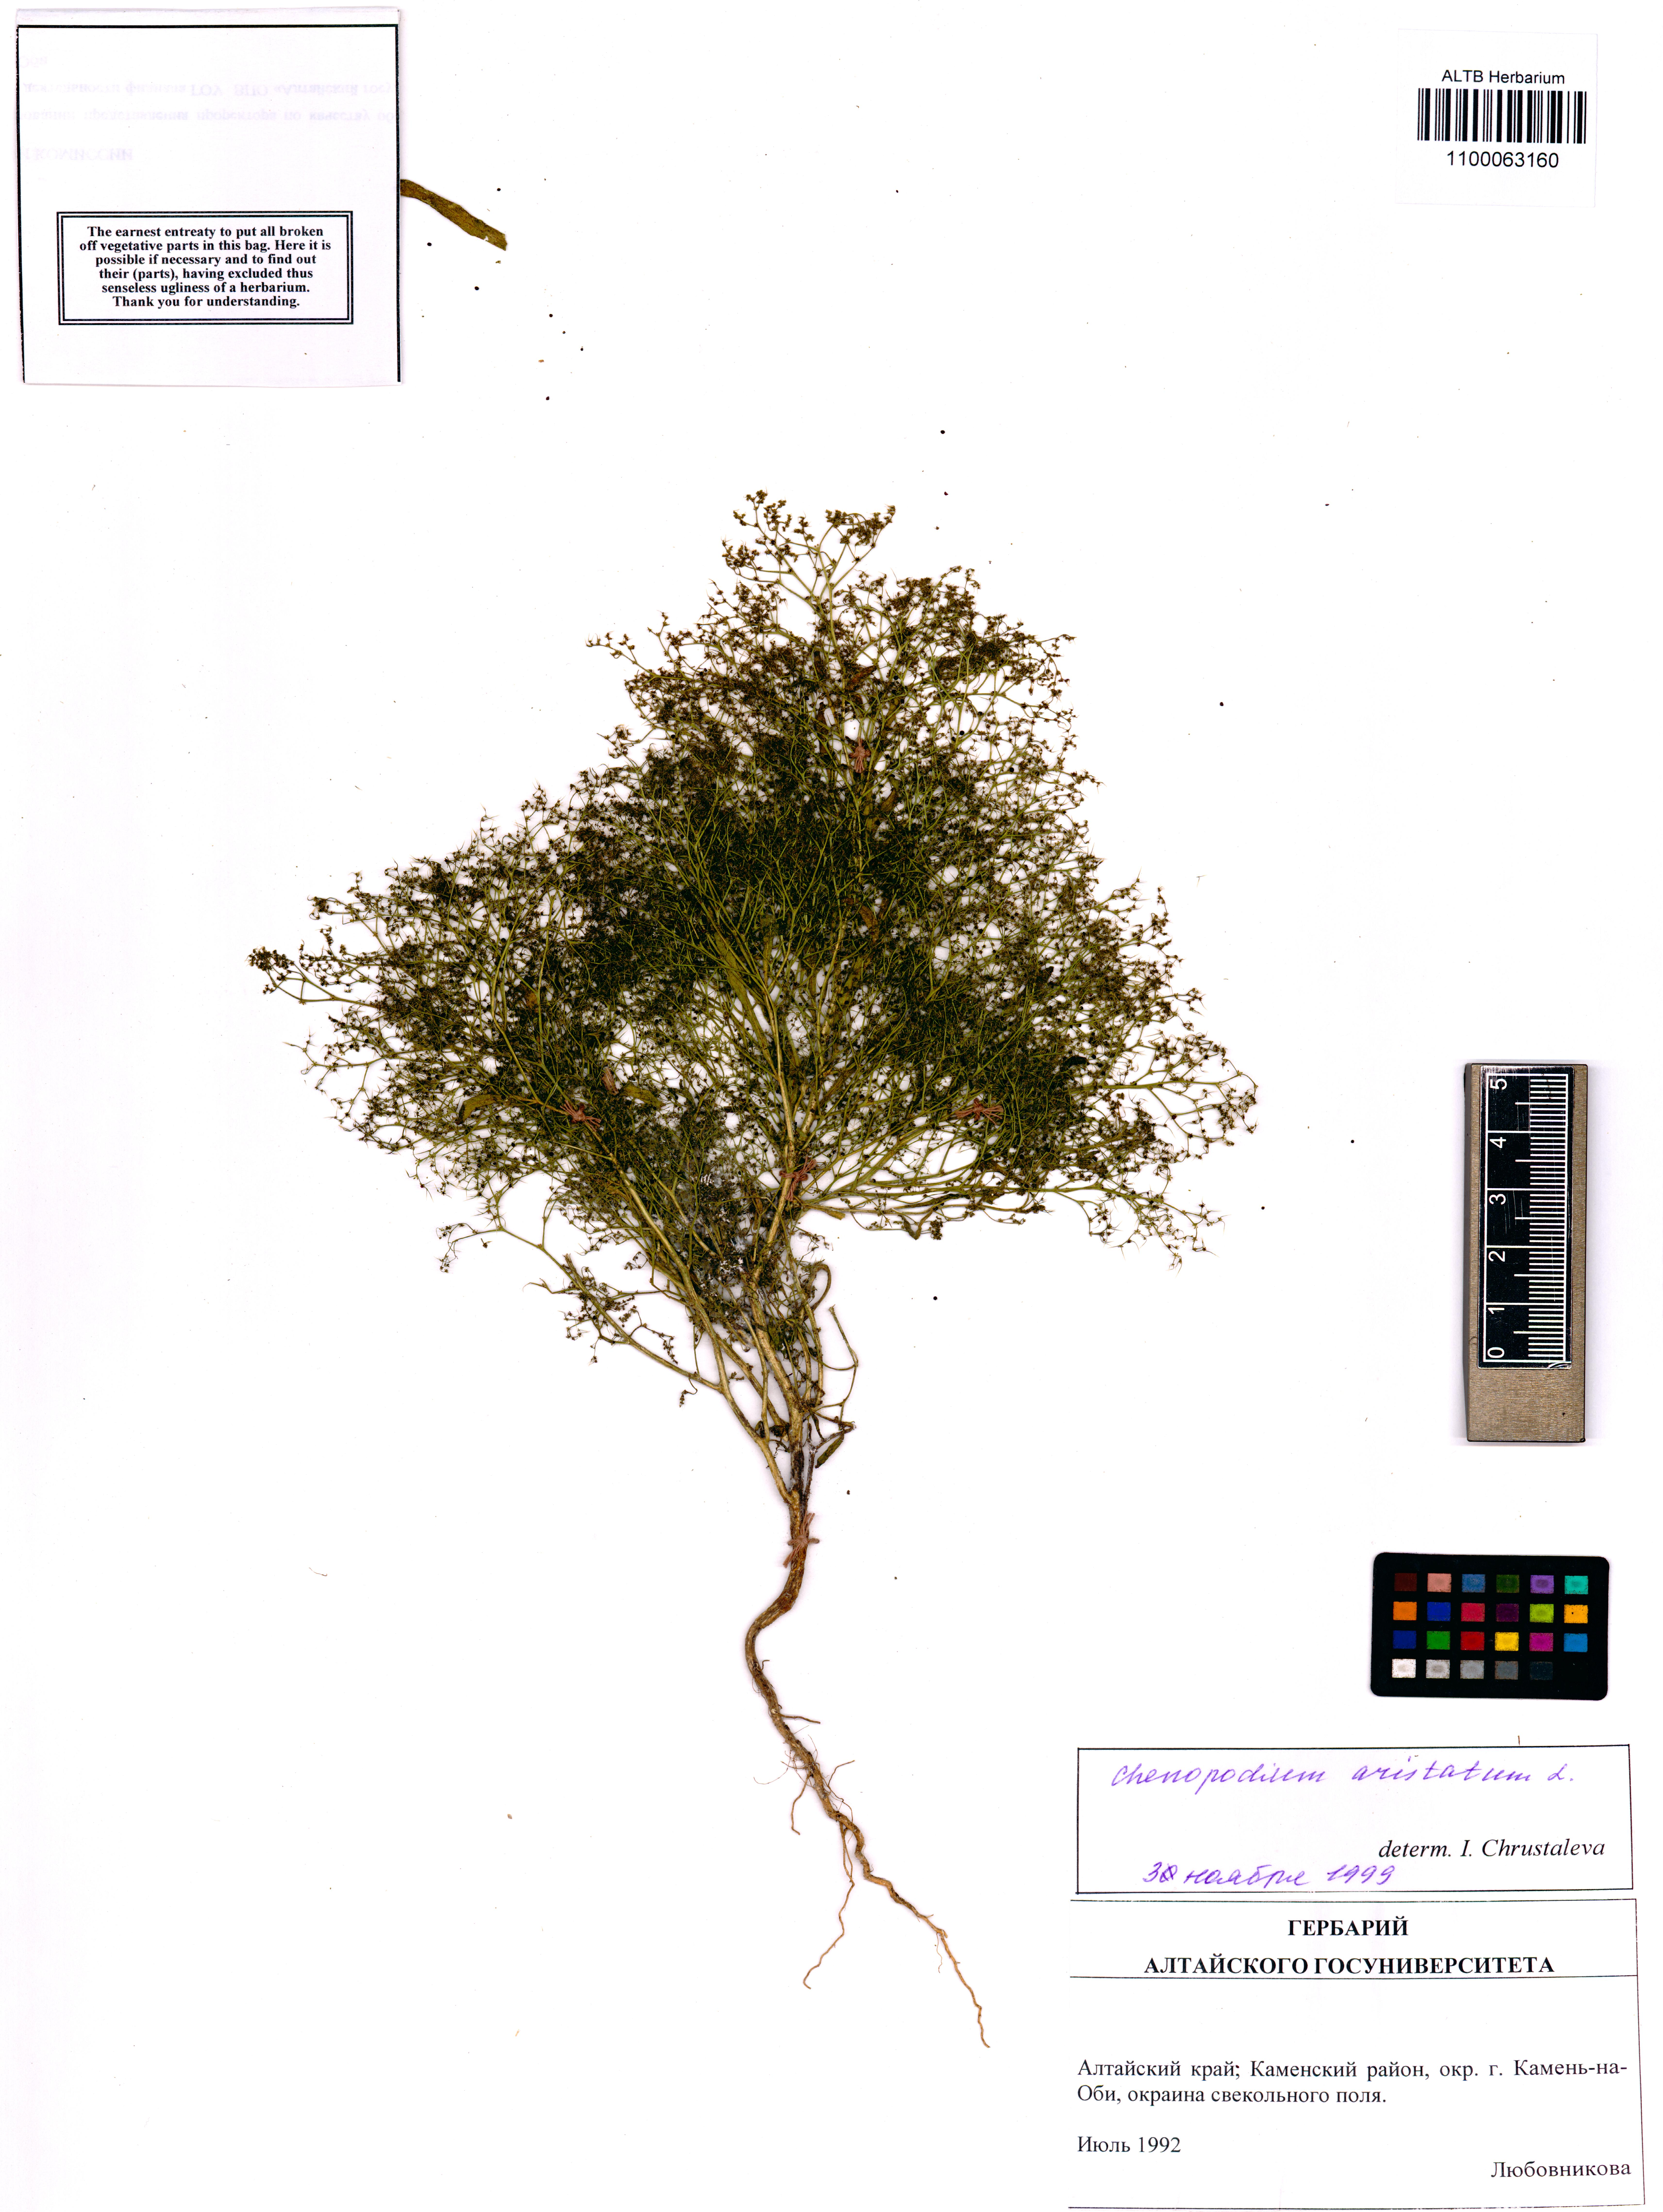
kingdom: Plantae
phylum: Tracheophyta
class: Magnoliopsida
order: Caryophyllales
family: Amaranthaceae
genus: Teloxys
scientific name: Teloxys aristata
